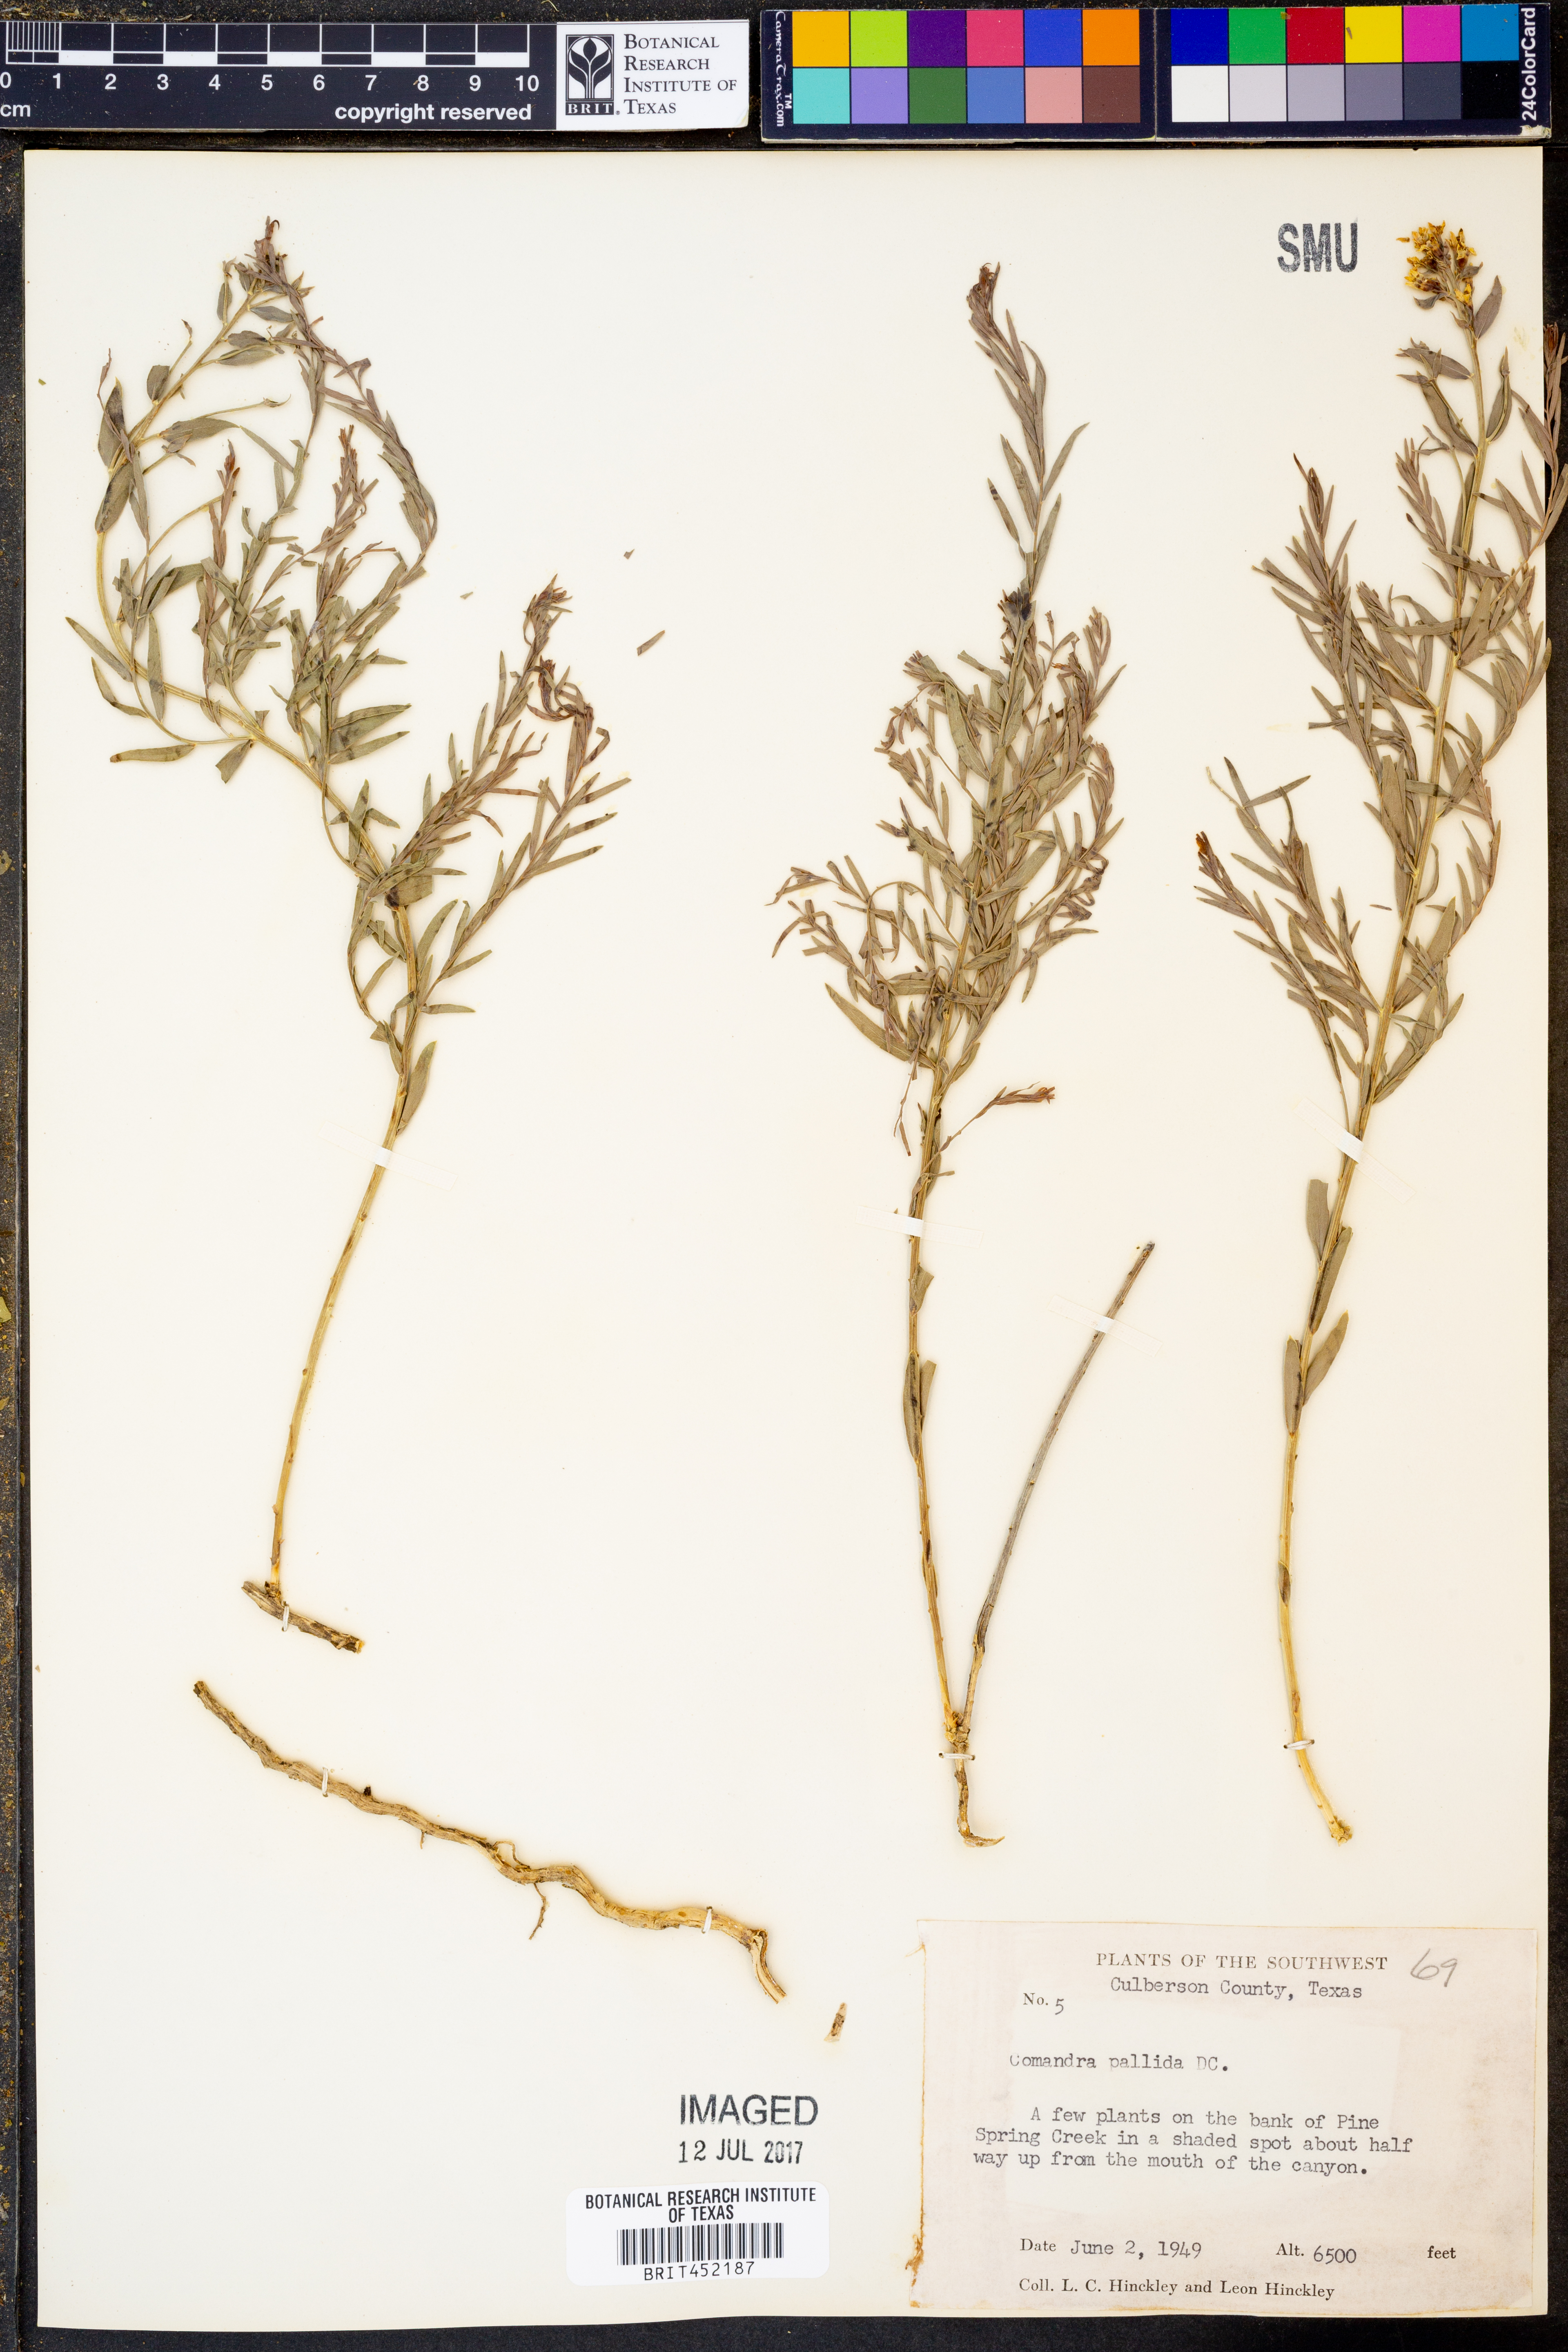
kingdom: Plantae
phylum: Tracheophyta
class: Magnoliopsida
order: Santalales
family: Comandraceae
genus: Comandra
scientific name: Comandra umbellata
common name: Bastard toadflax
